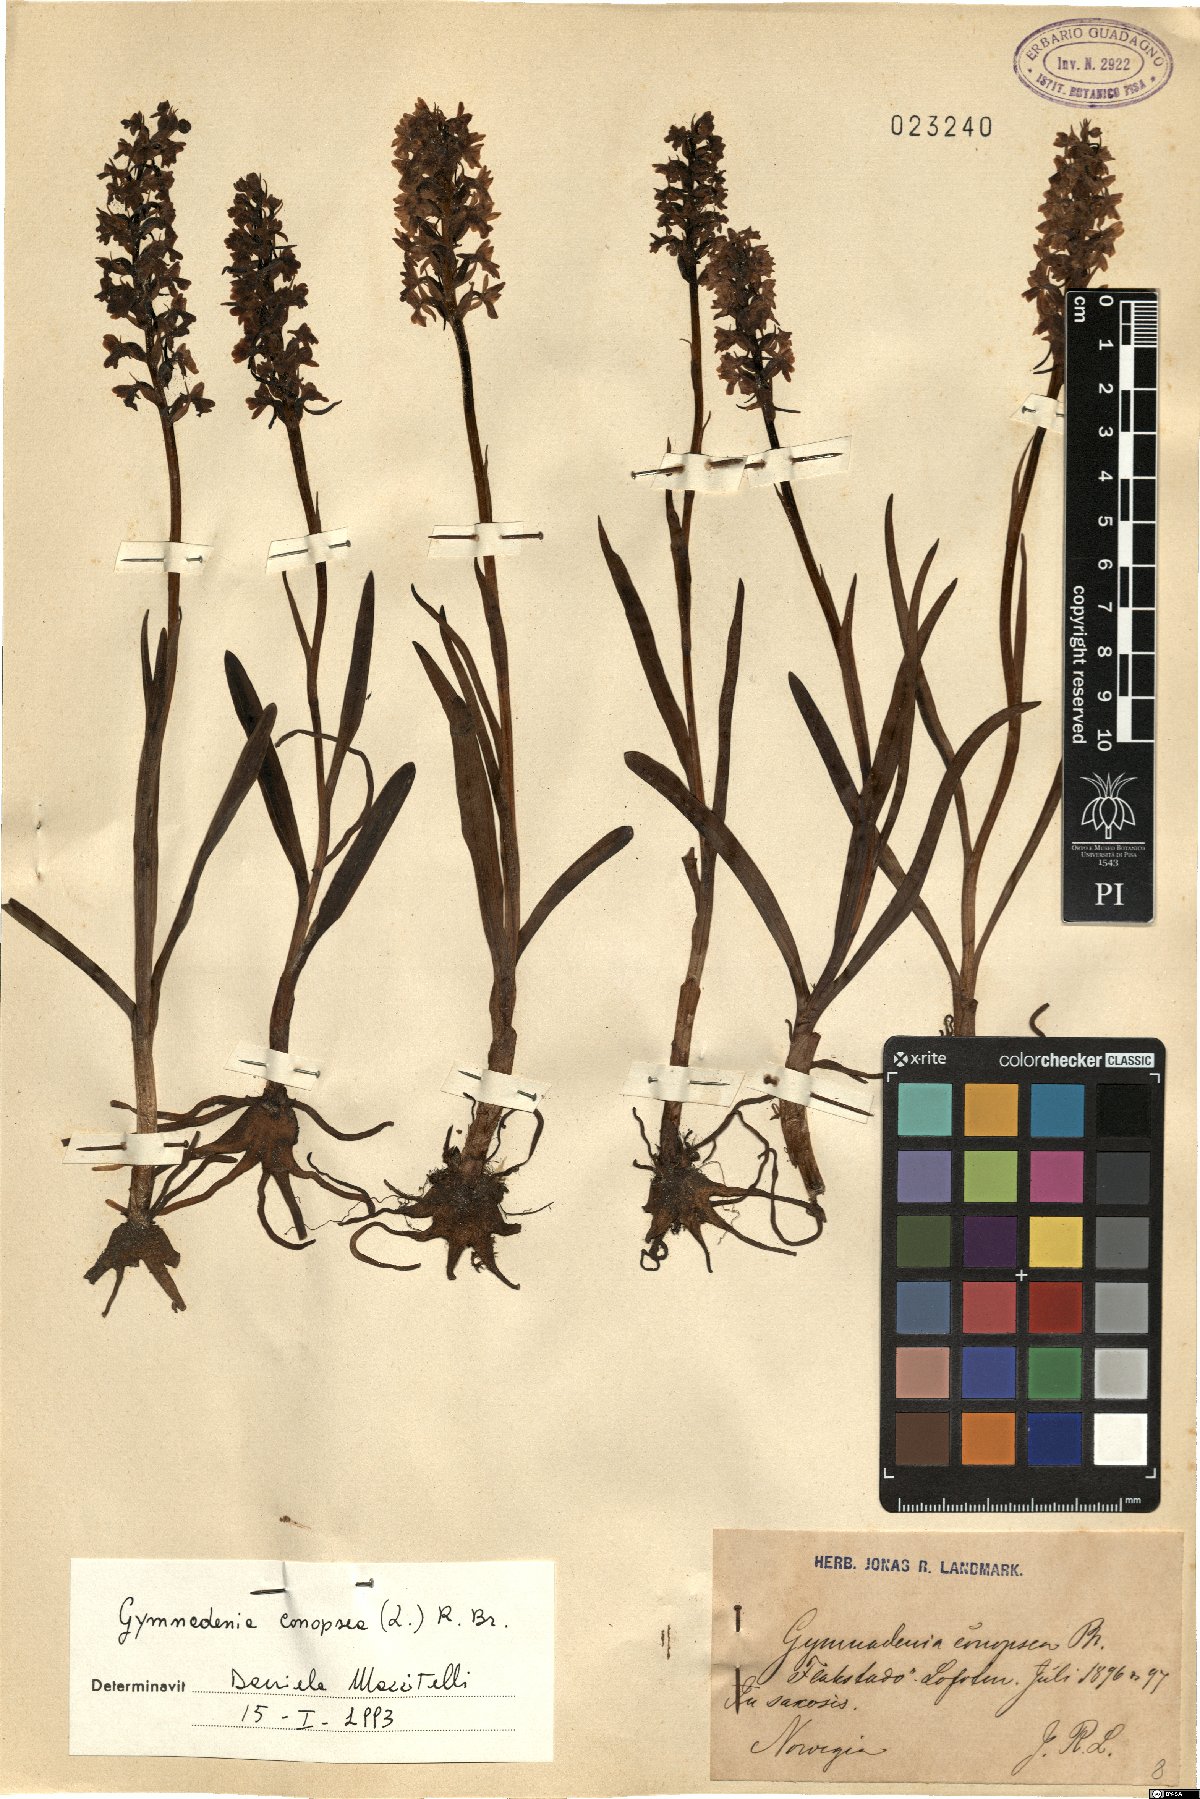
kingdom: Plantae
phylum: Tracheophyta
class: Liliopsida
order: Asparagales
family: Orchidaceae
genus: Gymnadenia
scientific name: Gymnadenia conopsea
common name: Fragrant orchid
